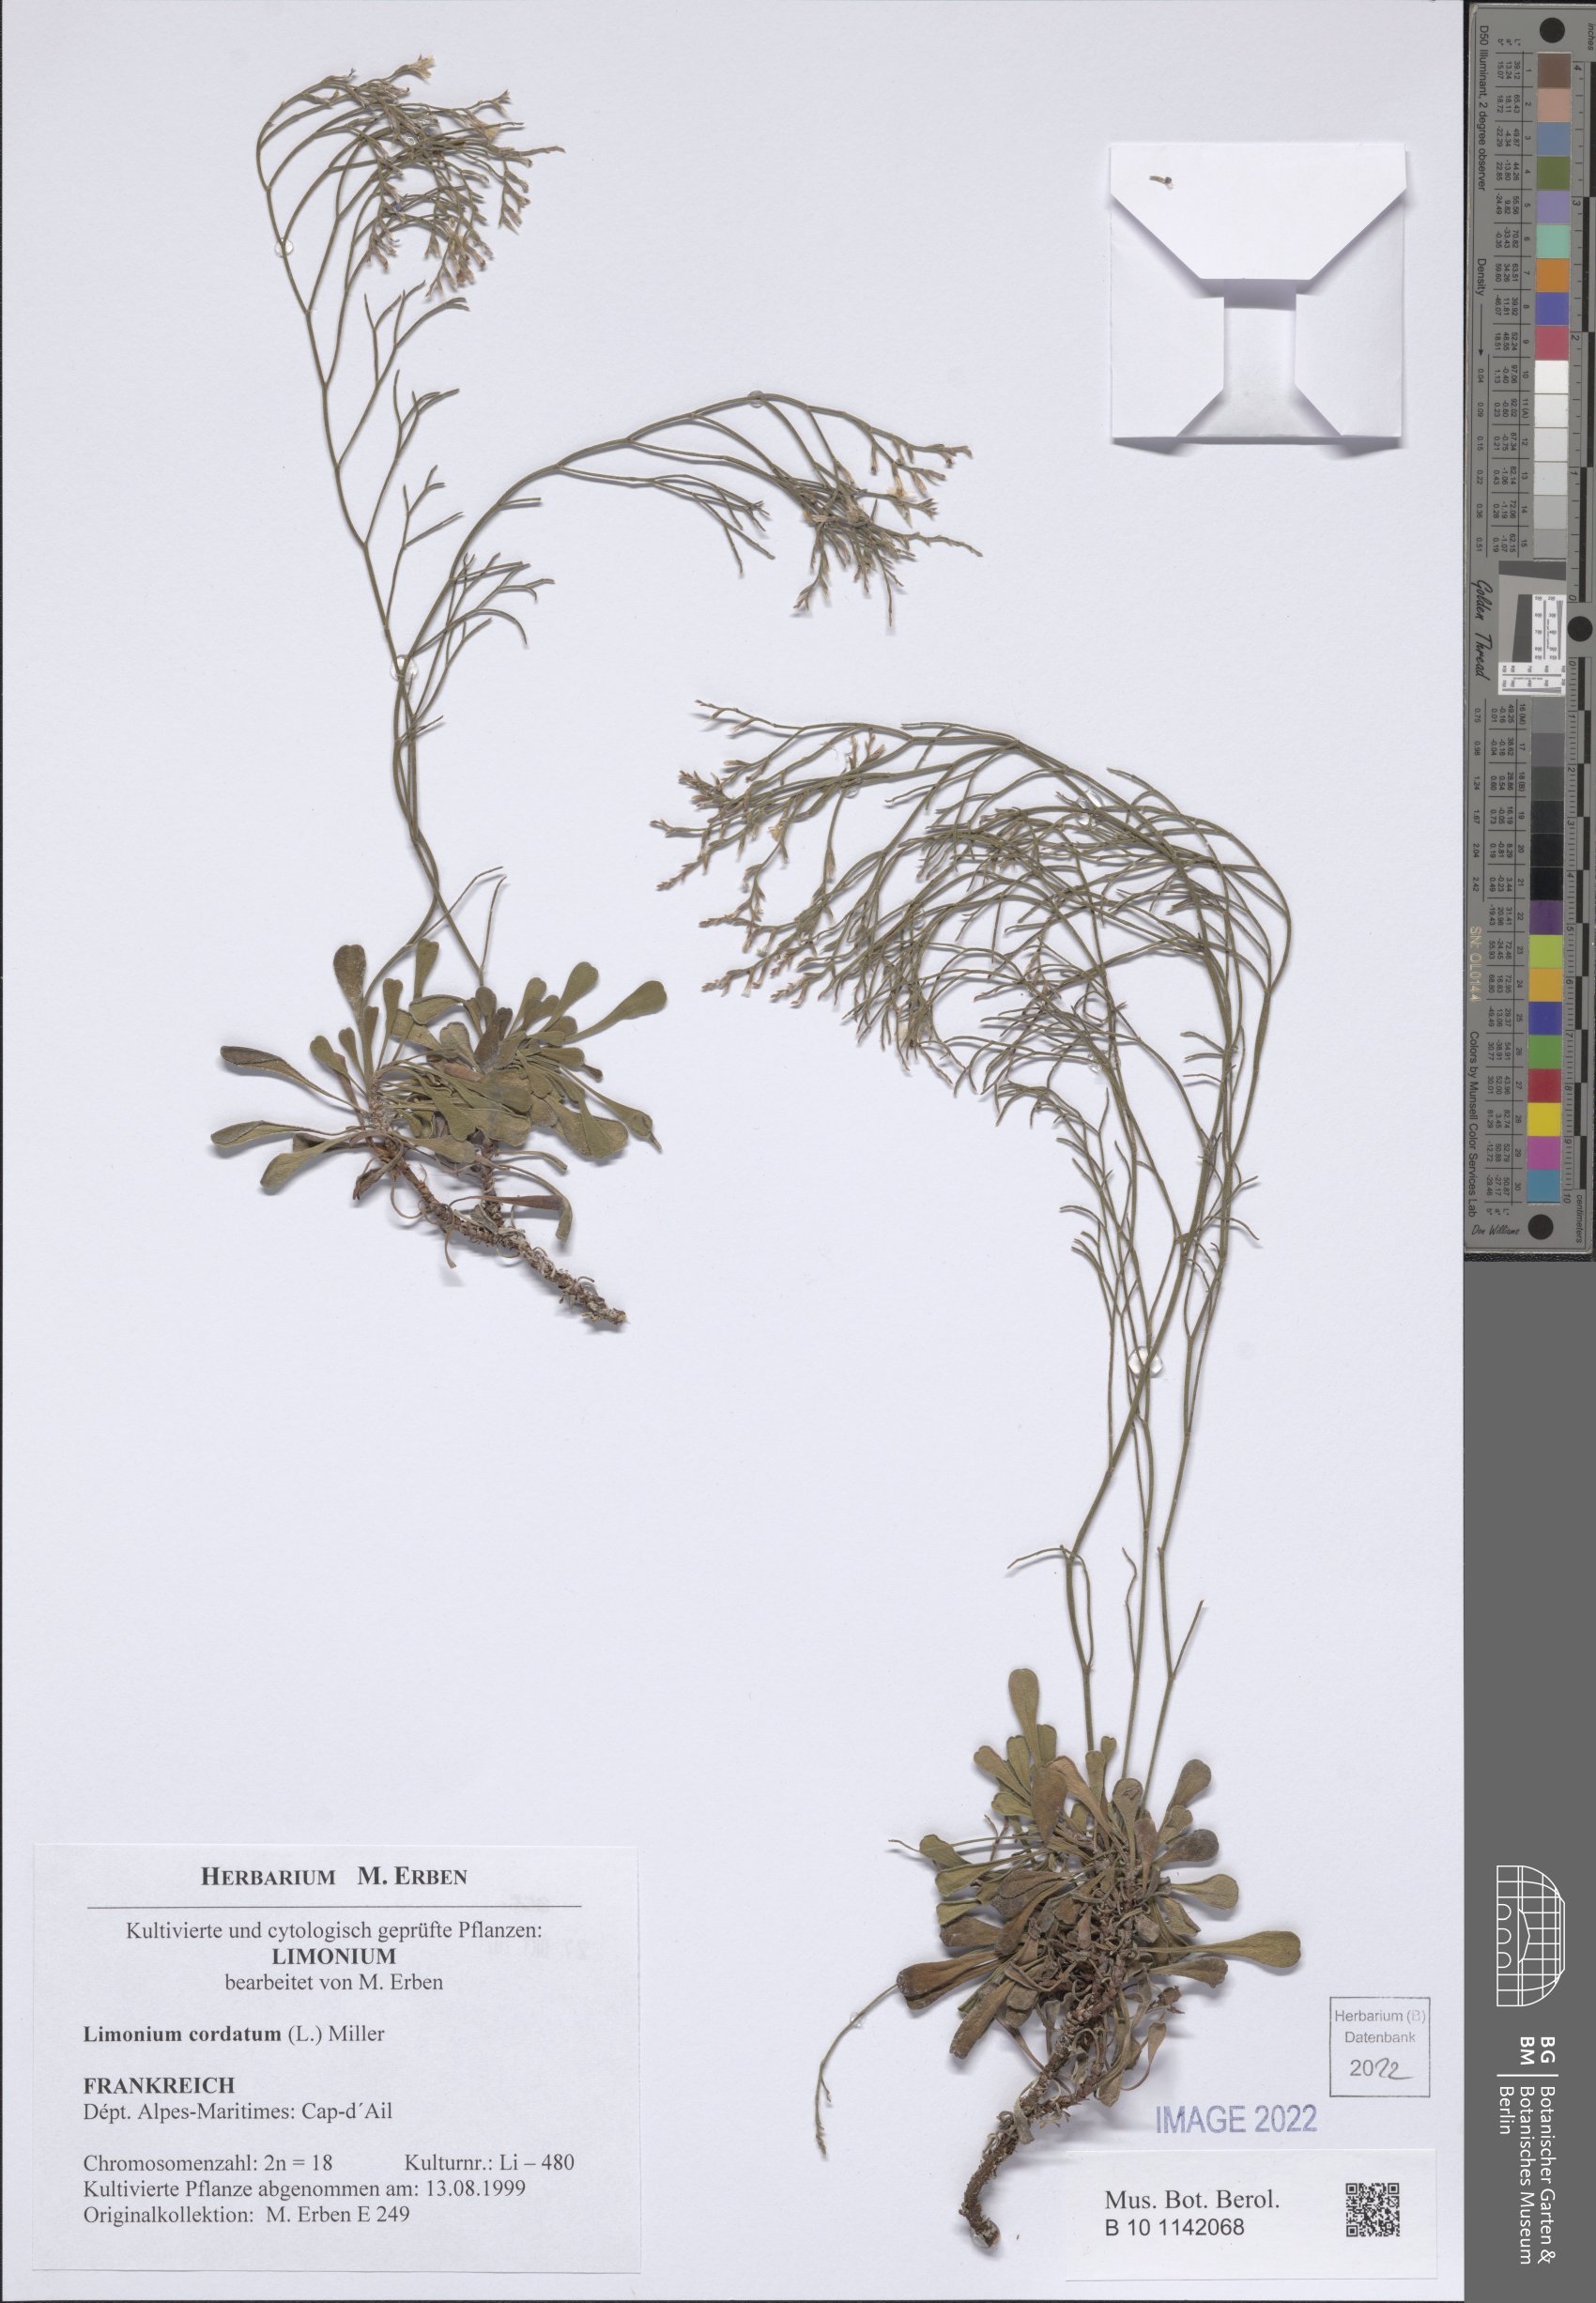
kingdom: Plantae
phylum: Tracheophyta
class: Magnoliopsida
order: Caryophyllales
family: Plumbaginaceae
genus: Limonium
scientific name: Limonium cordatum
